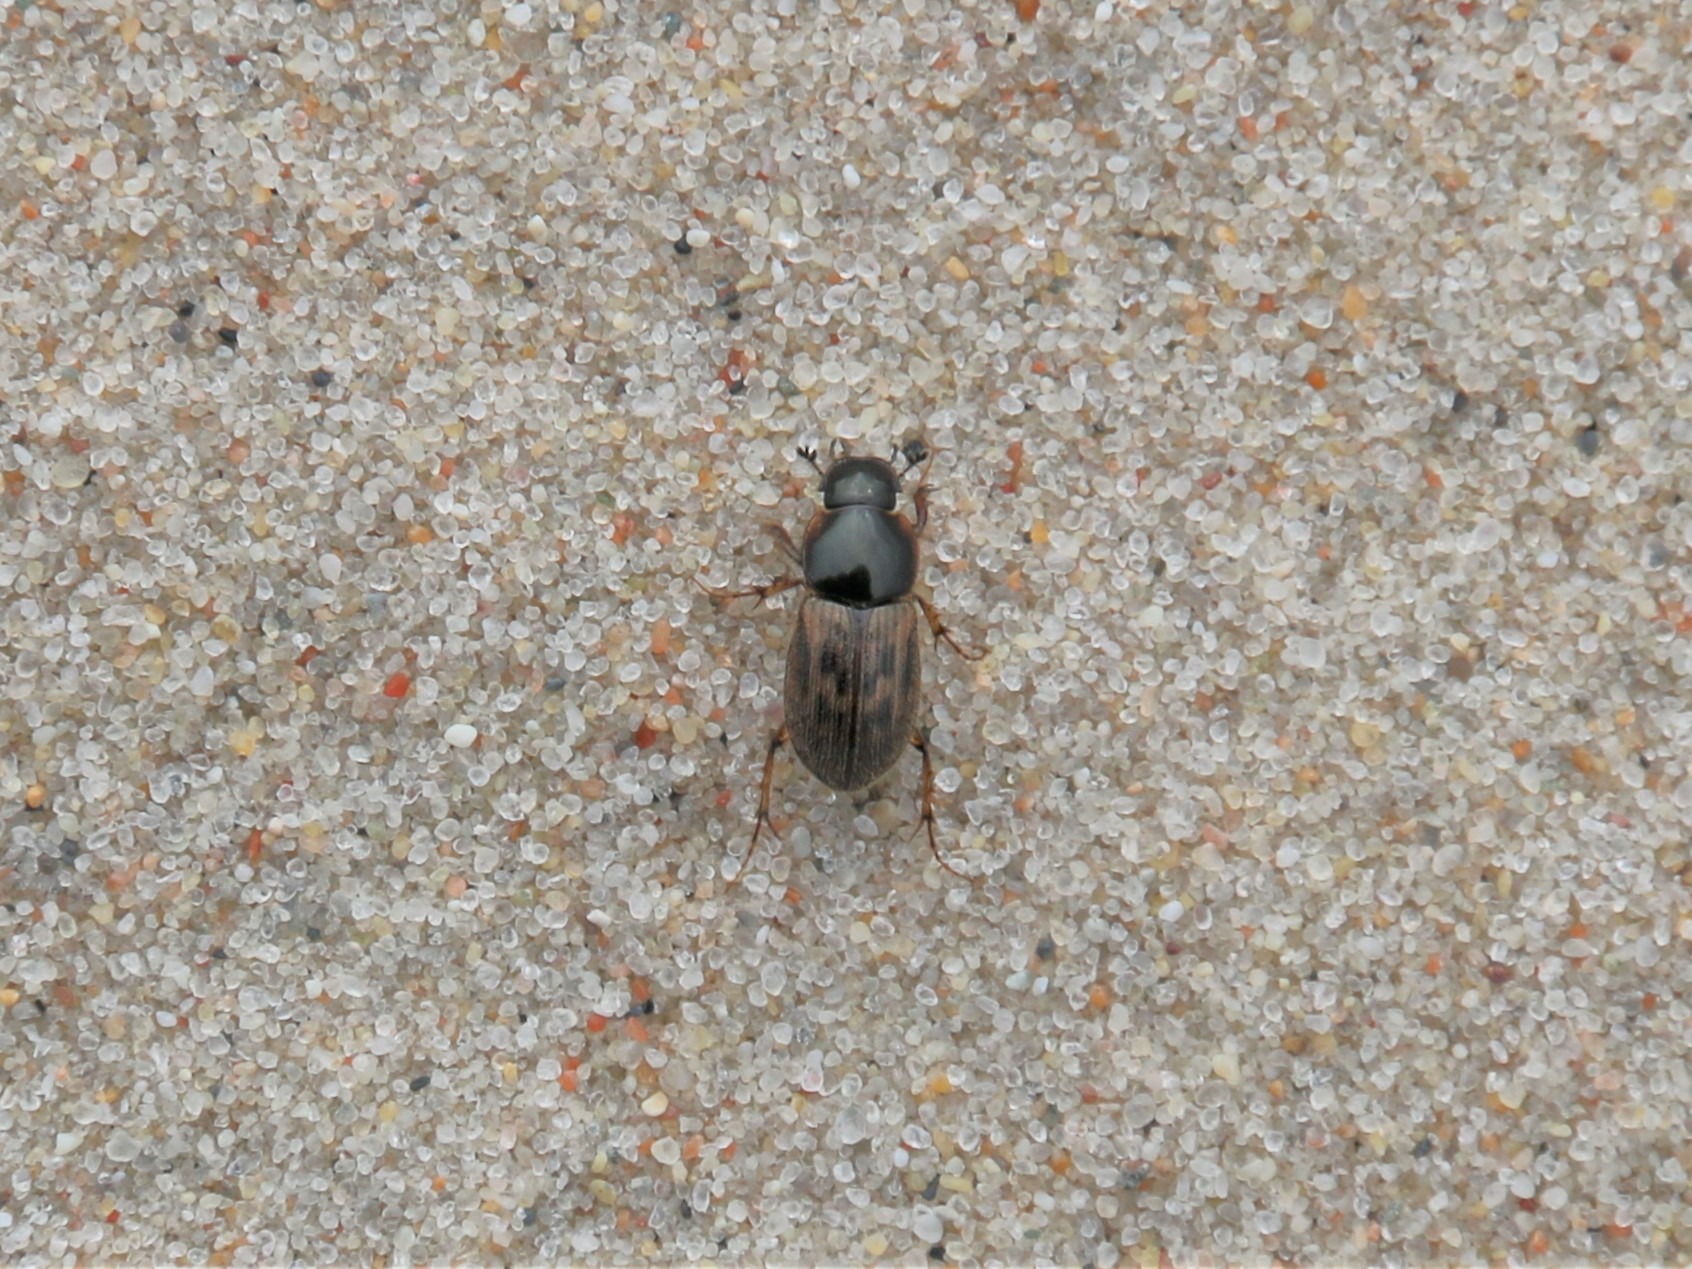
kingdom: Animalia
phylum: Arthropoda
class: Insecta
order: Coleoptera
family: Scarabaeidae
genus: Nimbus
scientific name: Nimbus contaminatus
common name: Sandhåret møgbille
